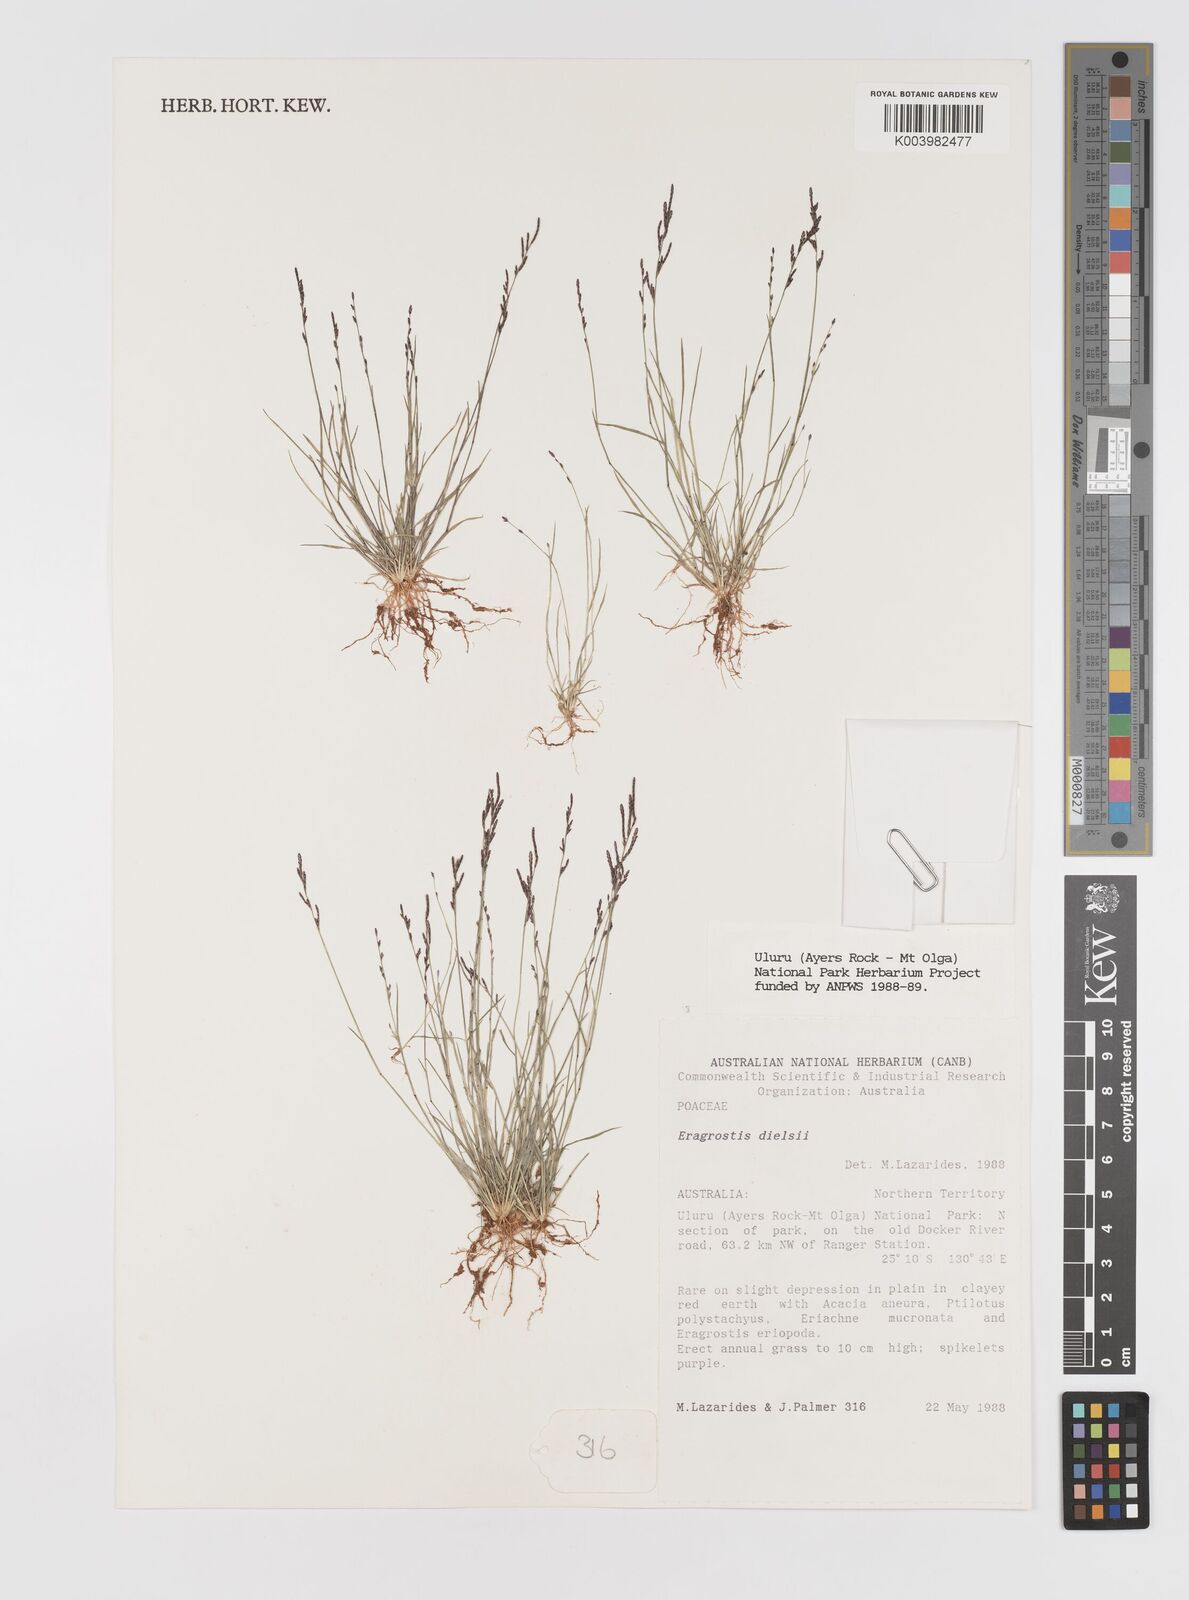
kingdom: Plantae
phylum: Tracheophyta
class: Liliopsida
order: Poales
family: Poaceae
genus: Eragrostis
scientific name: Eragrostis dielsii
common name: Lovegrass
